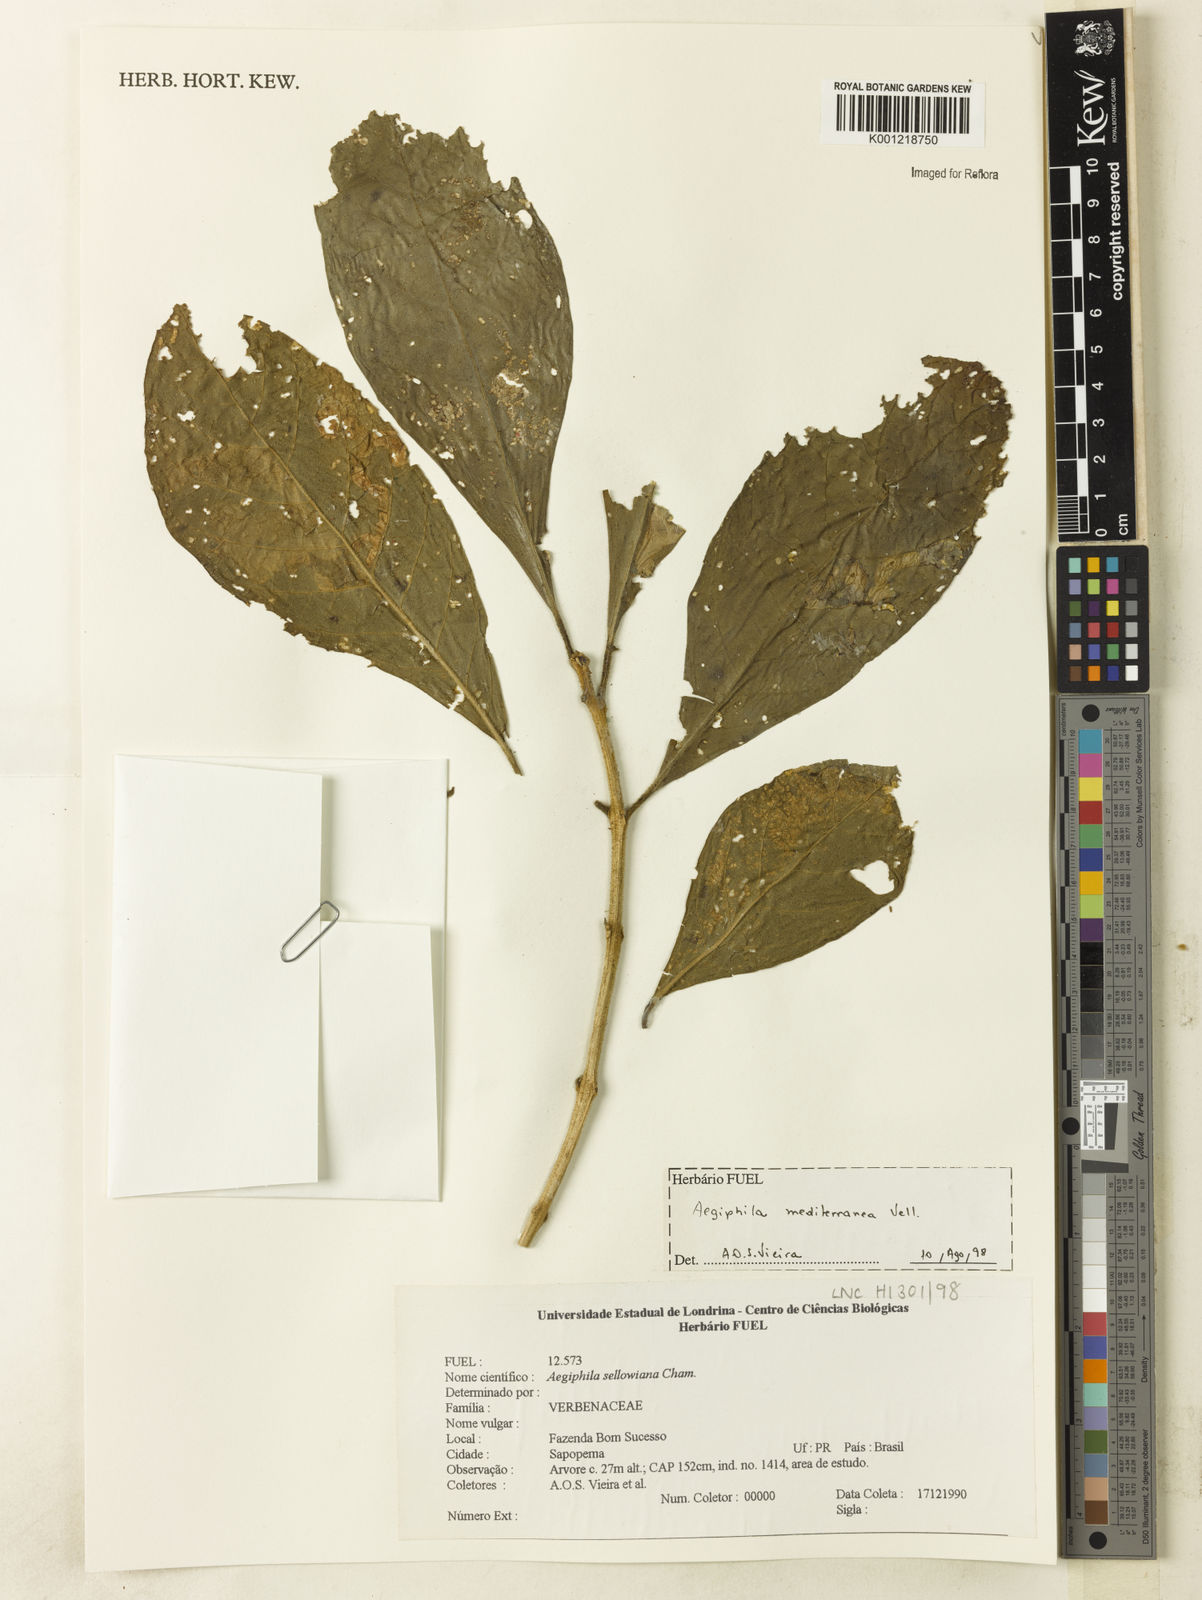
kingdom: Plantae
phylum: Tracheophyta
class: Magnoliopsida
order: Lamiales
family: Lamiaceae
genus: Aegiphila
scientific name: Aegiphila mediterranea
